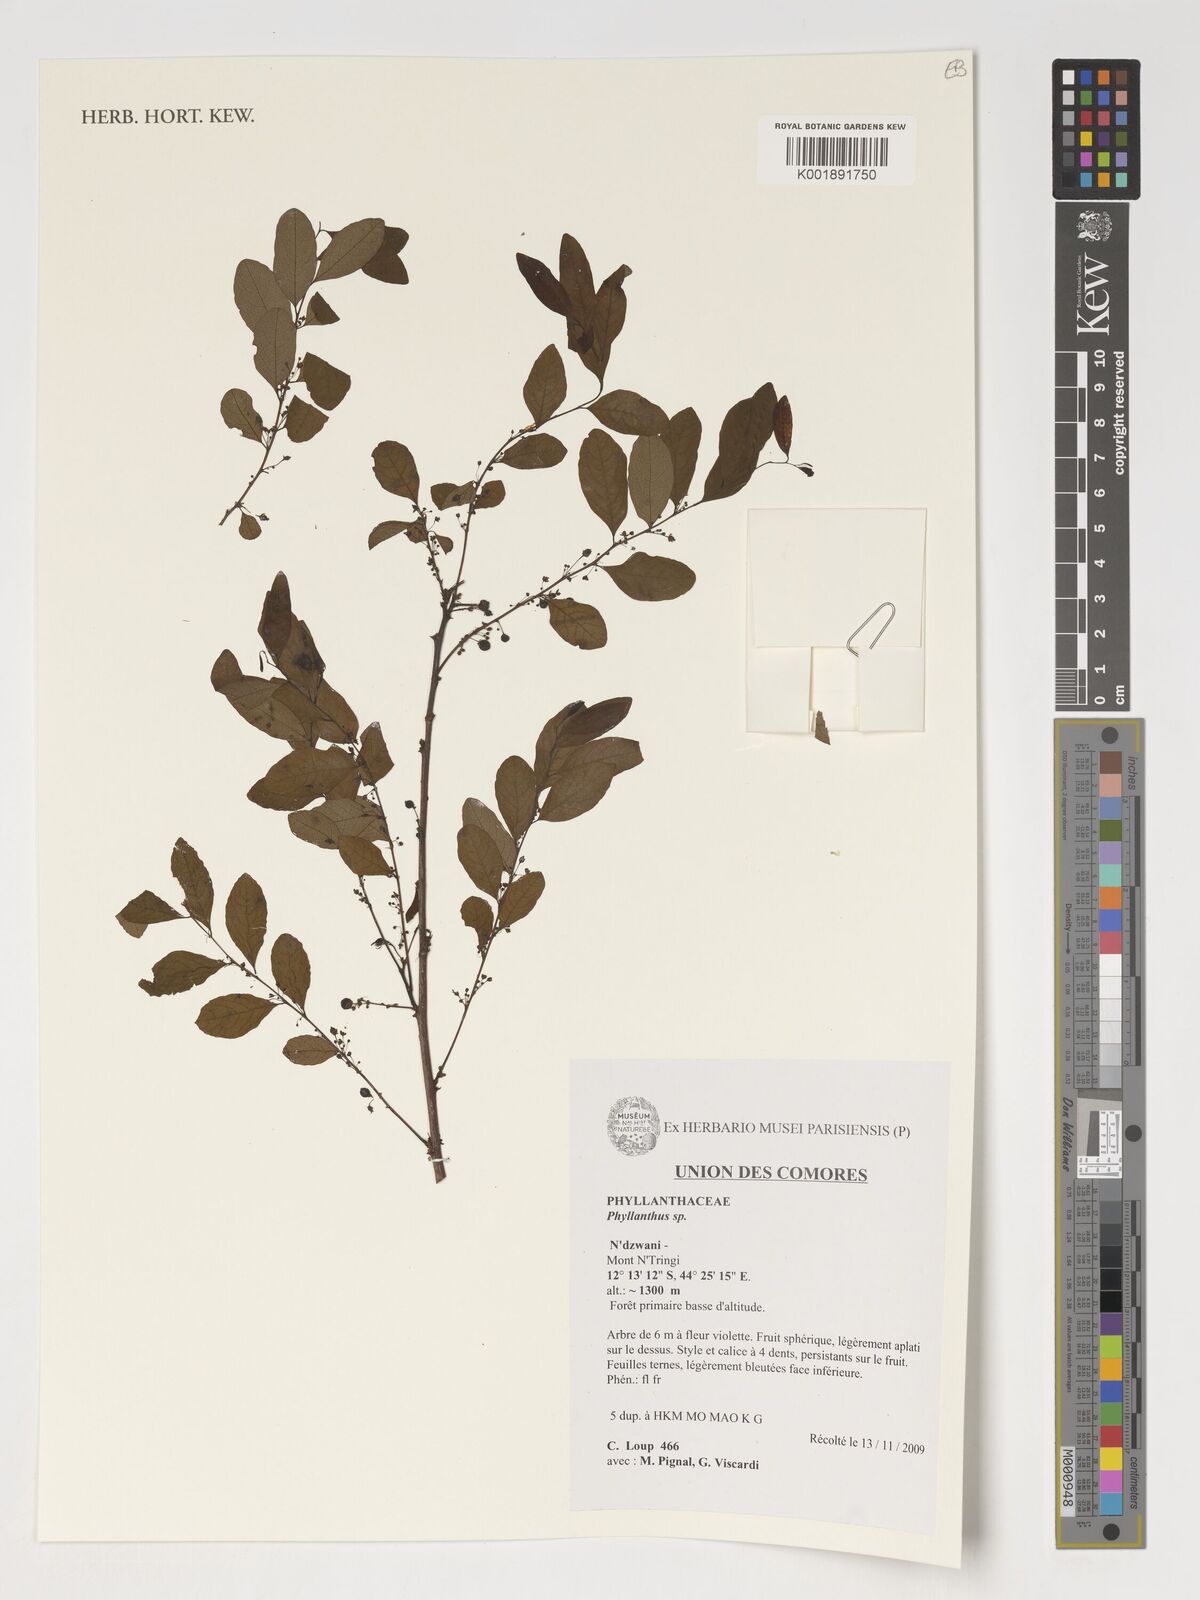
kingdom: Plantae
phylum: Tracheophyta
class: Magnoliopsida
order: Malpighiales
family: Phyllanthaceae
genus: Phyllanthus
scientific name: Phyllanthus
